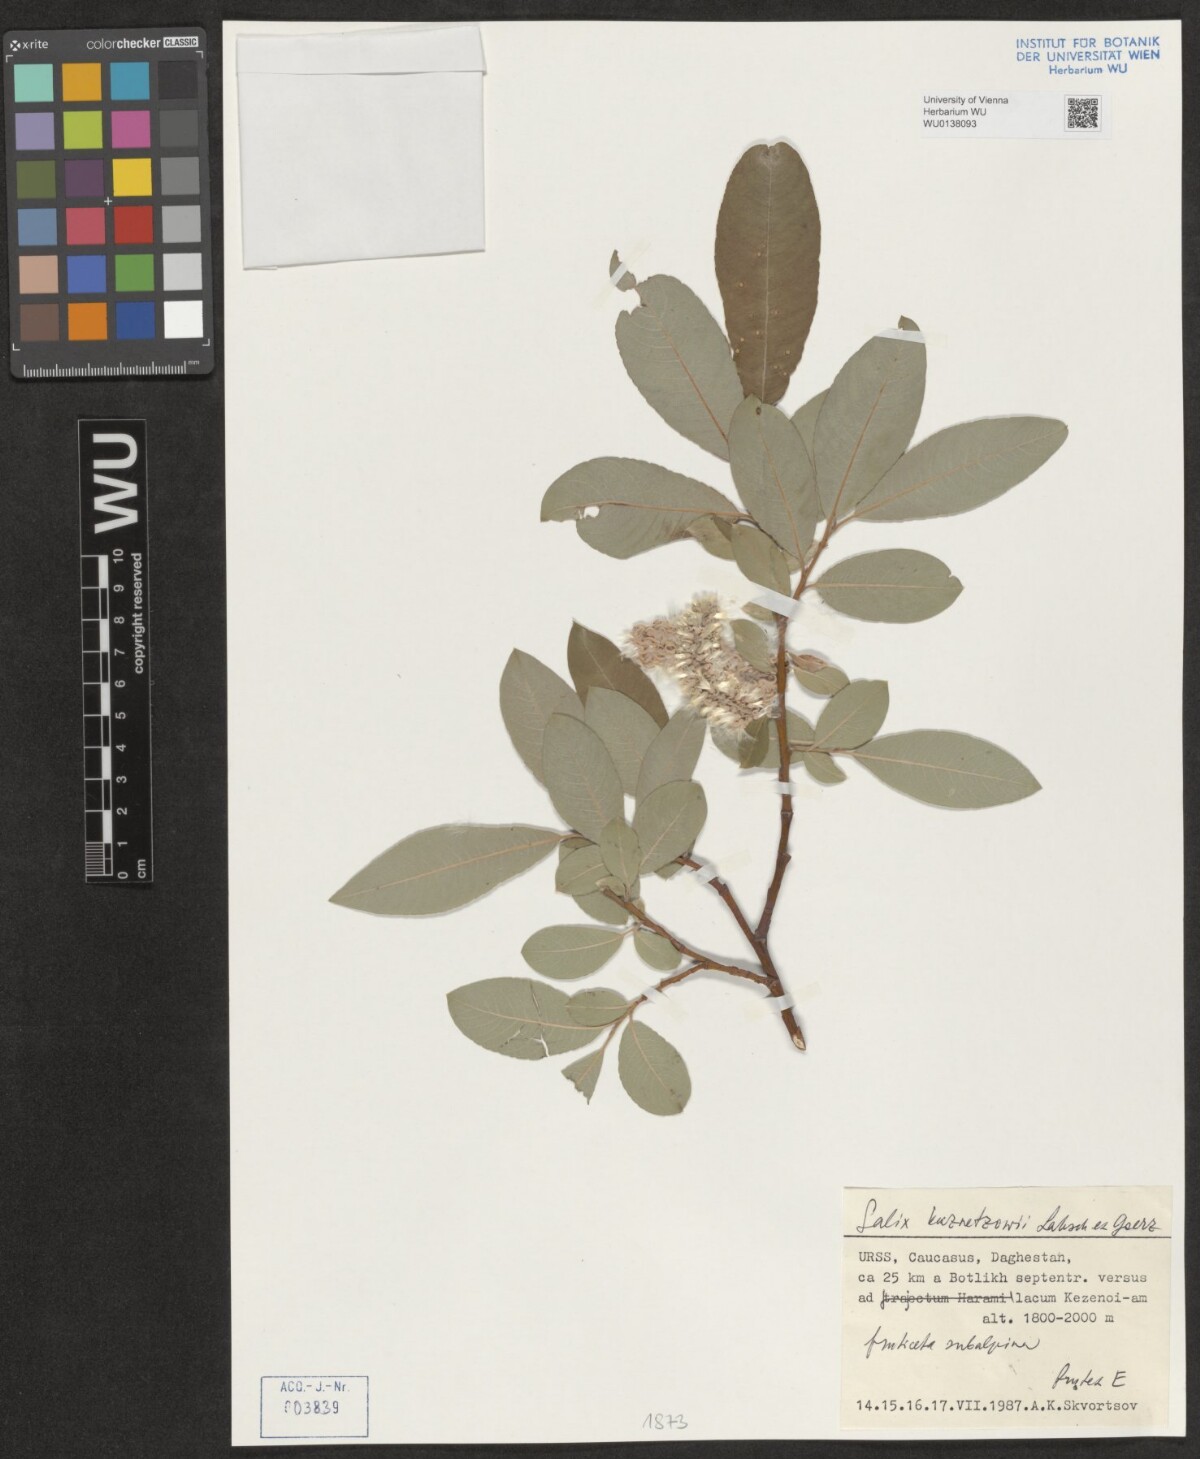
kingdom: Plantae
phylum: Tracheophyta
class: Magnoliopsida
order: Malpighiales
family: Salicaceae
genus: Salix
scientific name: Salix kusnetzowii
